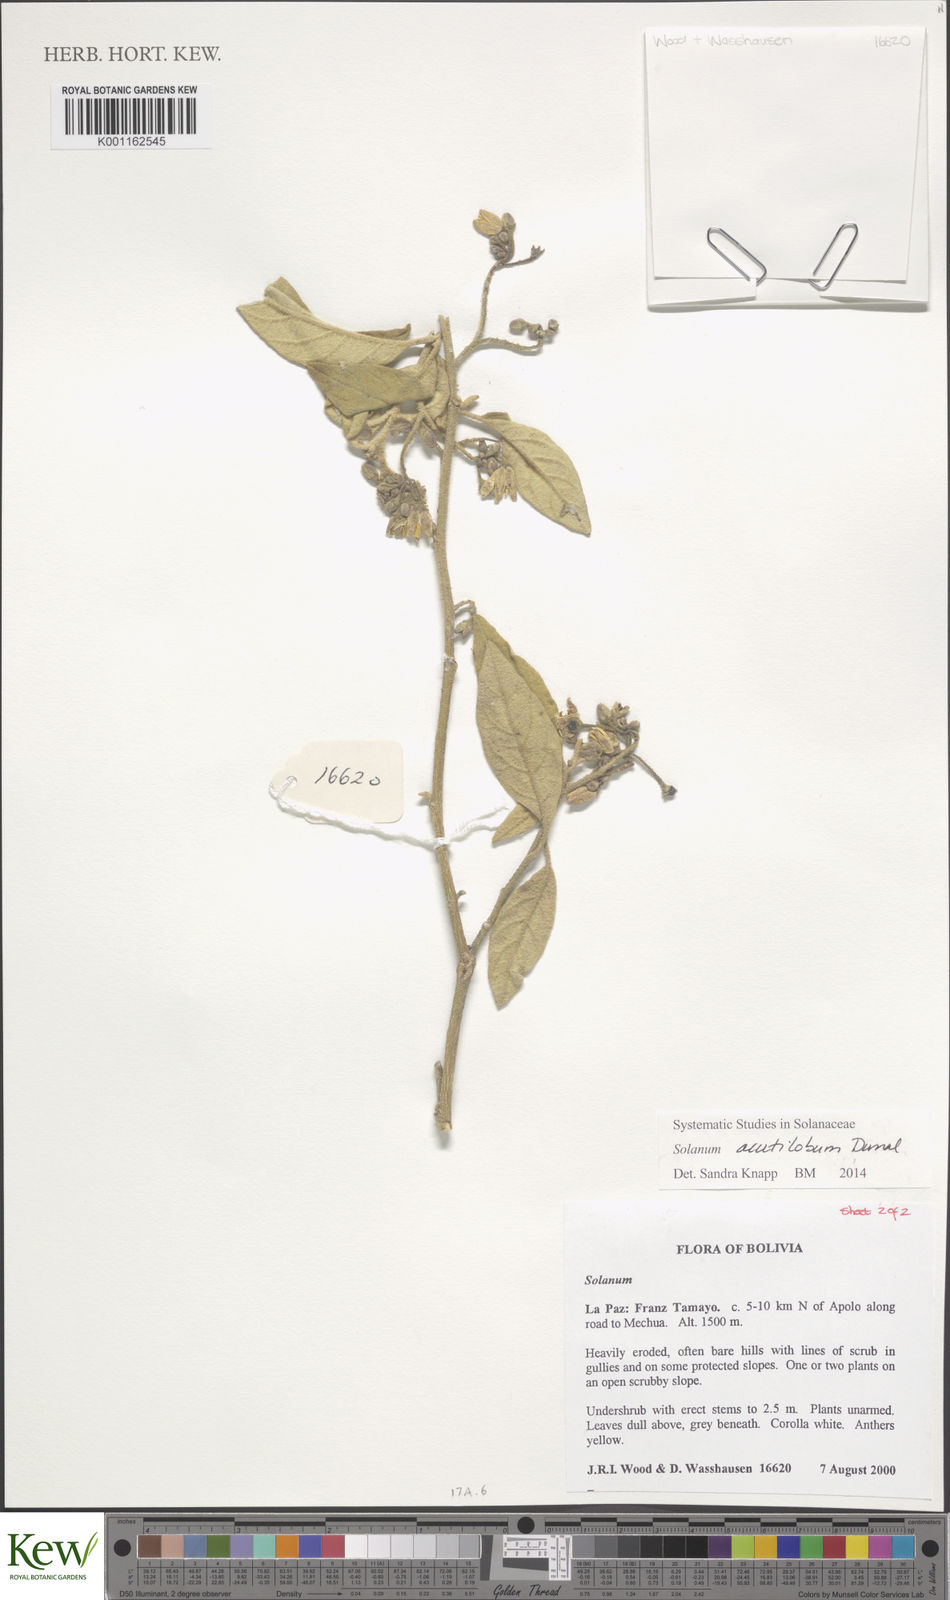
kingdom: Plantae
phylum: Tracheophyta
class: Magnoliopsida
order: Solanales
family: Solanaceae
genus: Solanum
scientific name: Solanum acutilobum
